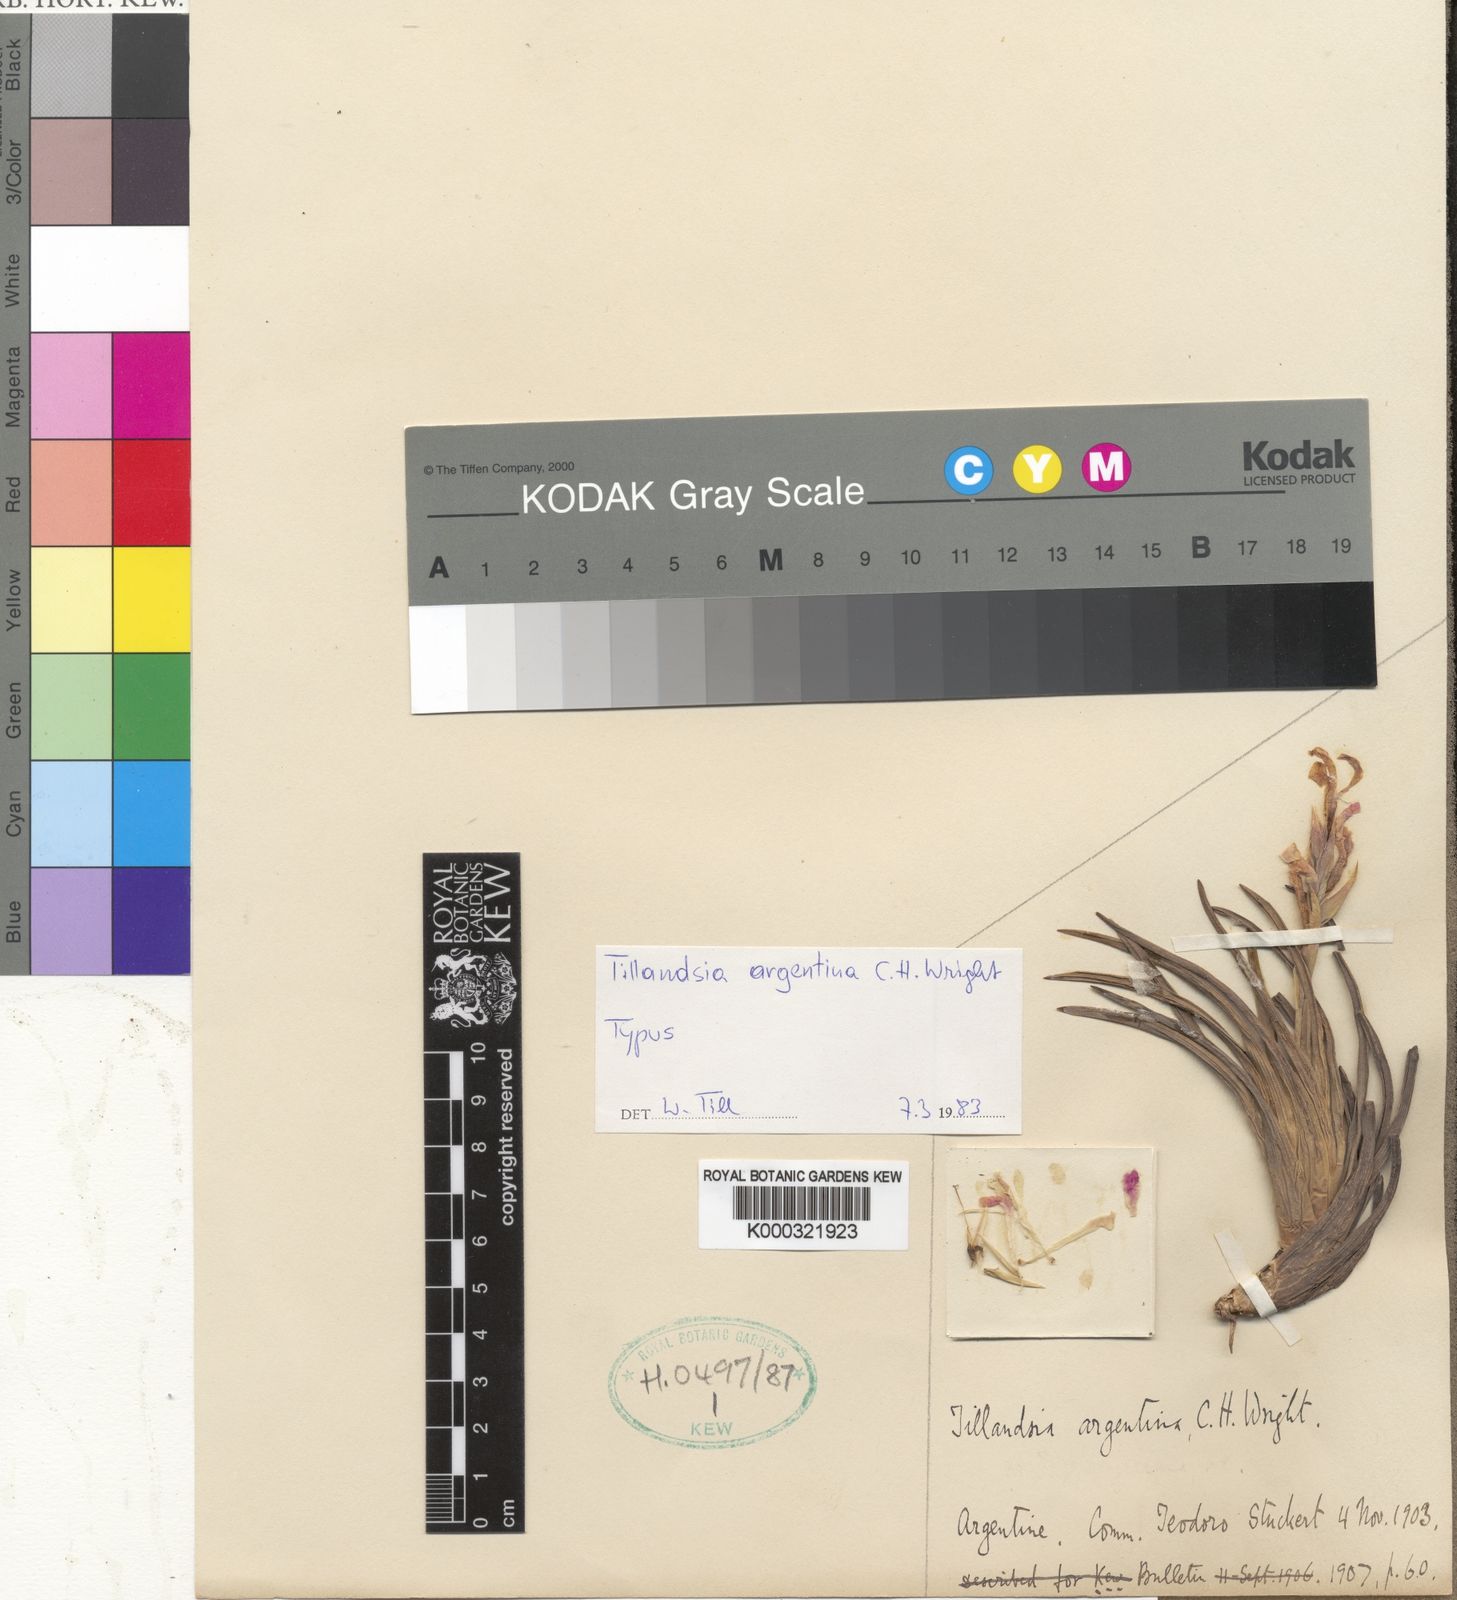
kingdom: Plantae
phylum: Tracheophyta
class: Liliopsida
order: Poales
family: Bromeliaceae
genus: Tillandsia
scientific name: Tillandsia argentina
